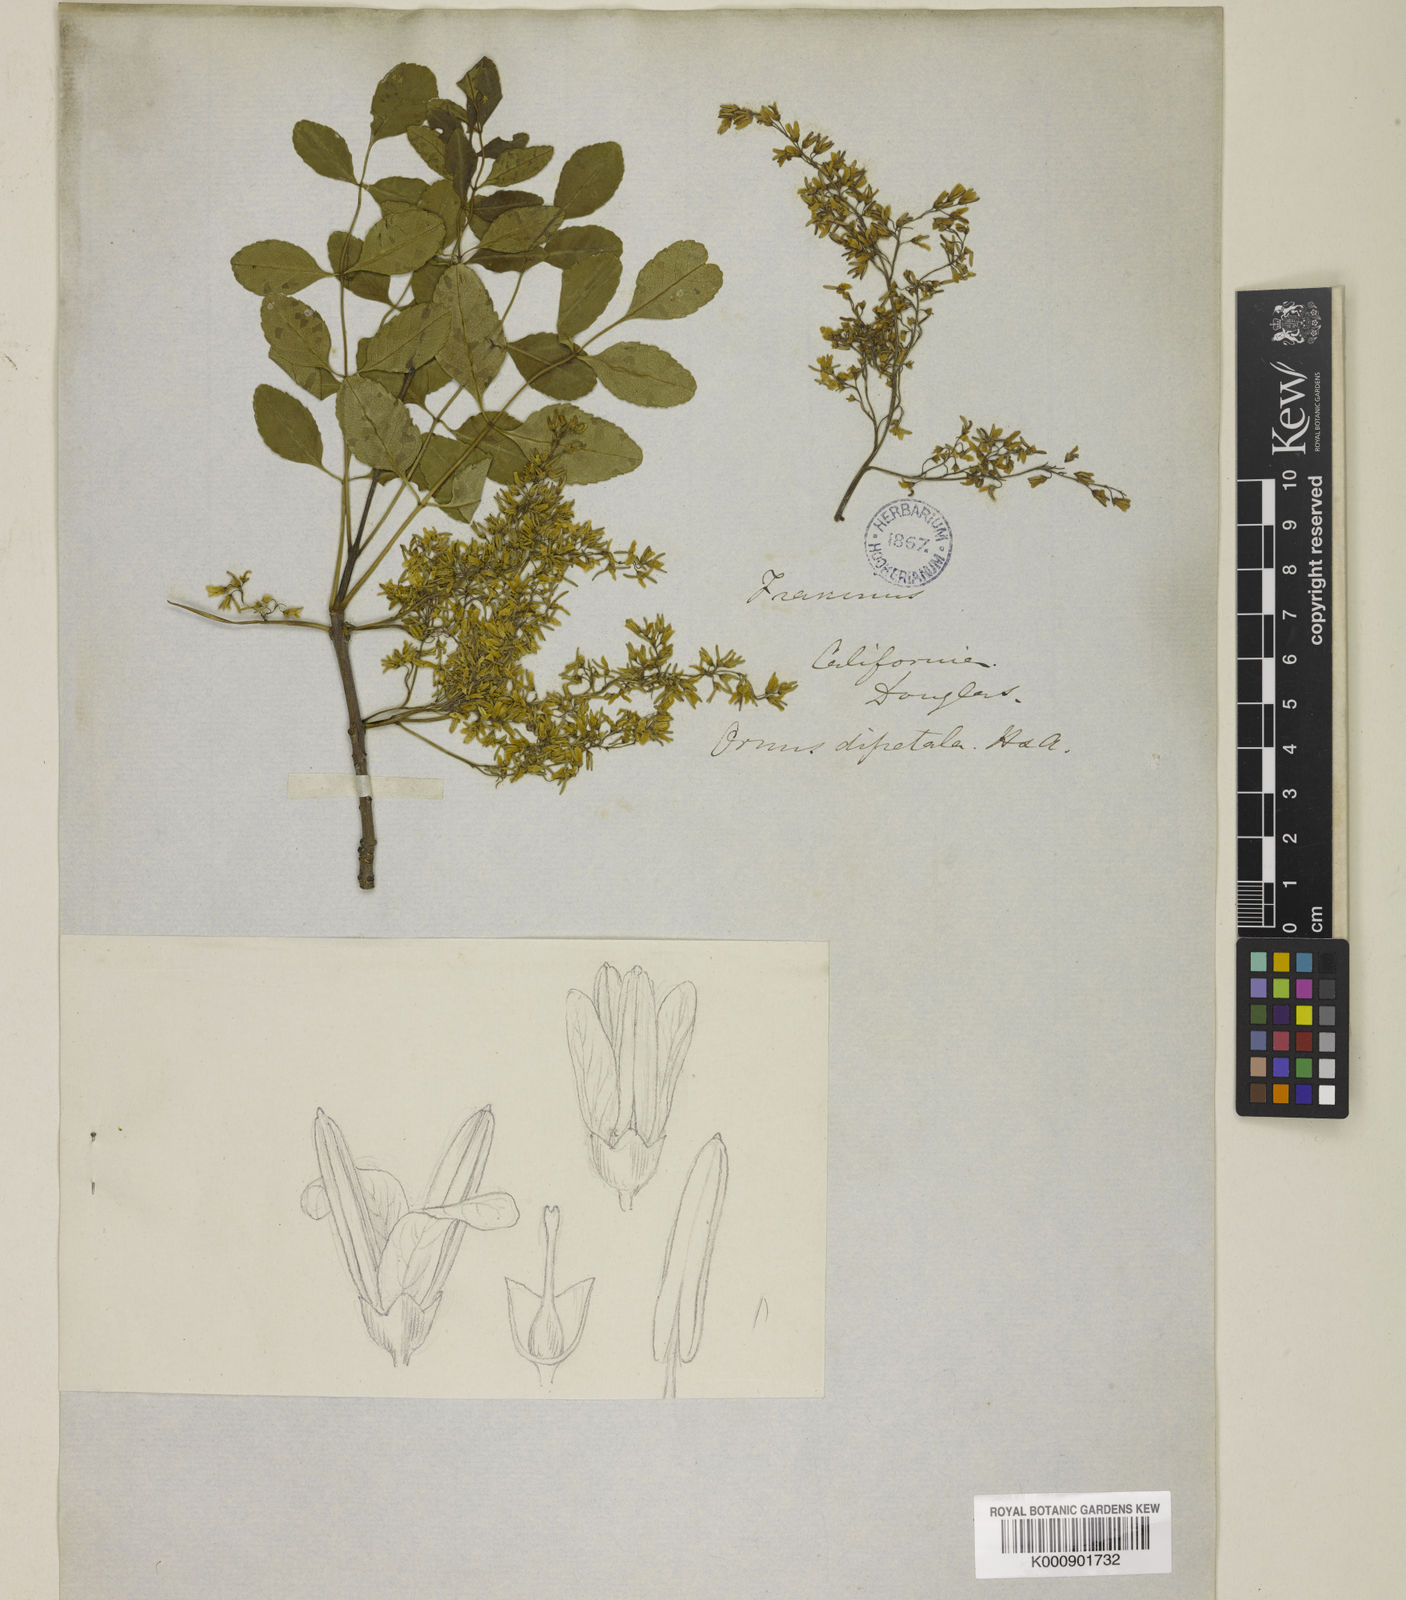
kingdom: Plantae
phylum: Tracheophyta
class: Magnoliopsida
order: Lamiales
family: Oleaceae
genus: Fraxinus
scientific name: Fraxinus dipetala
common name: California ash
